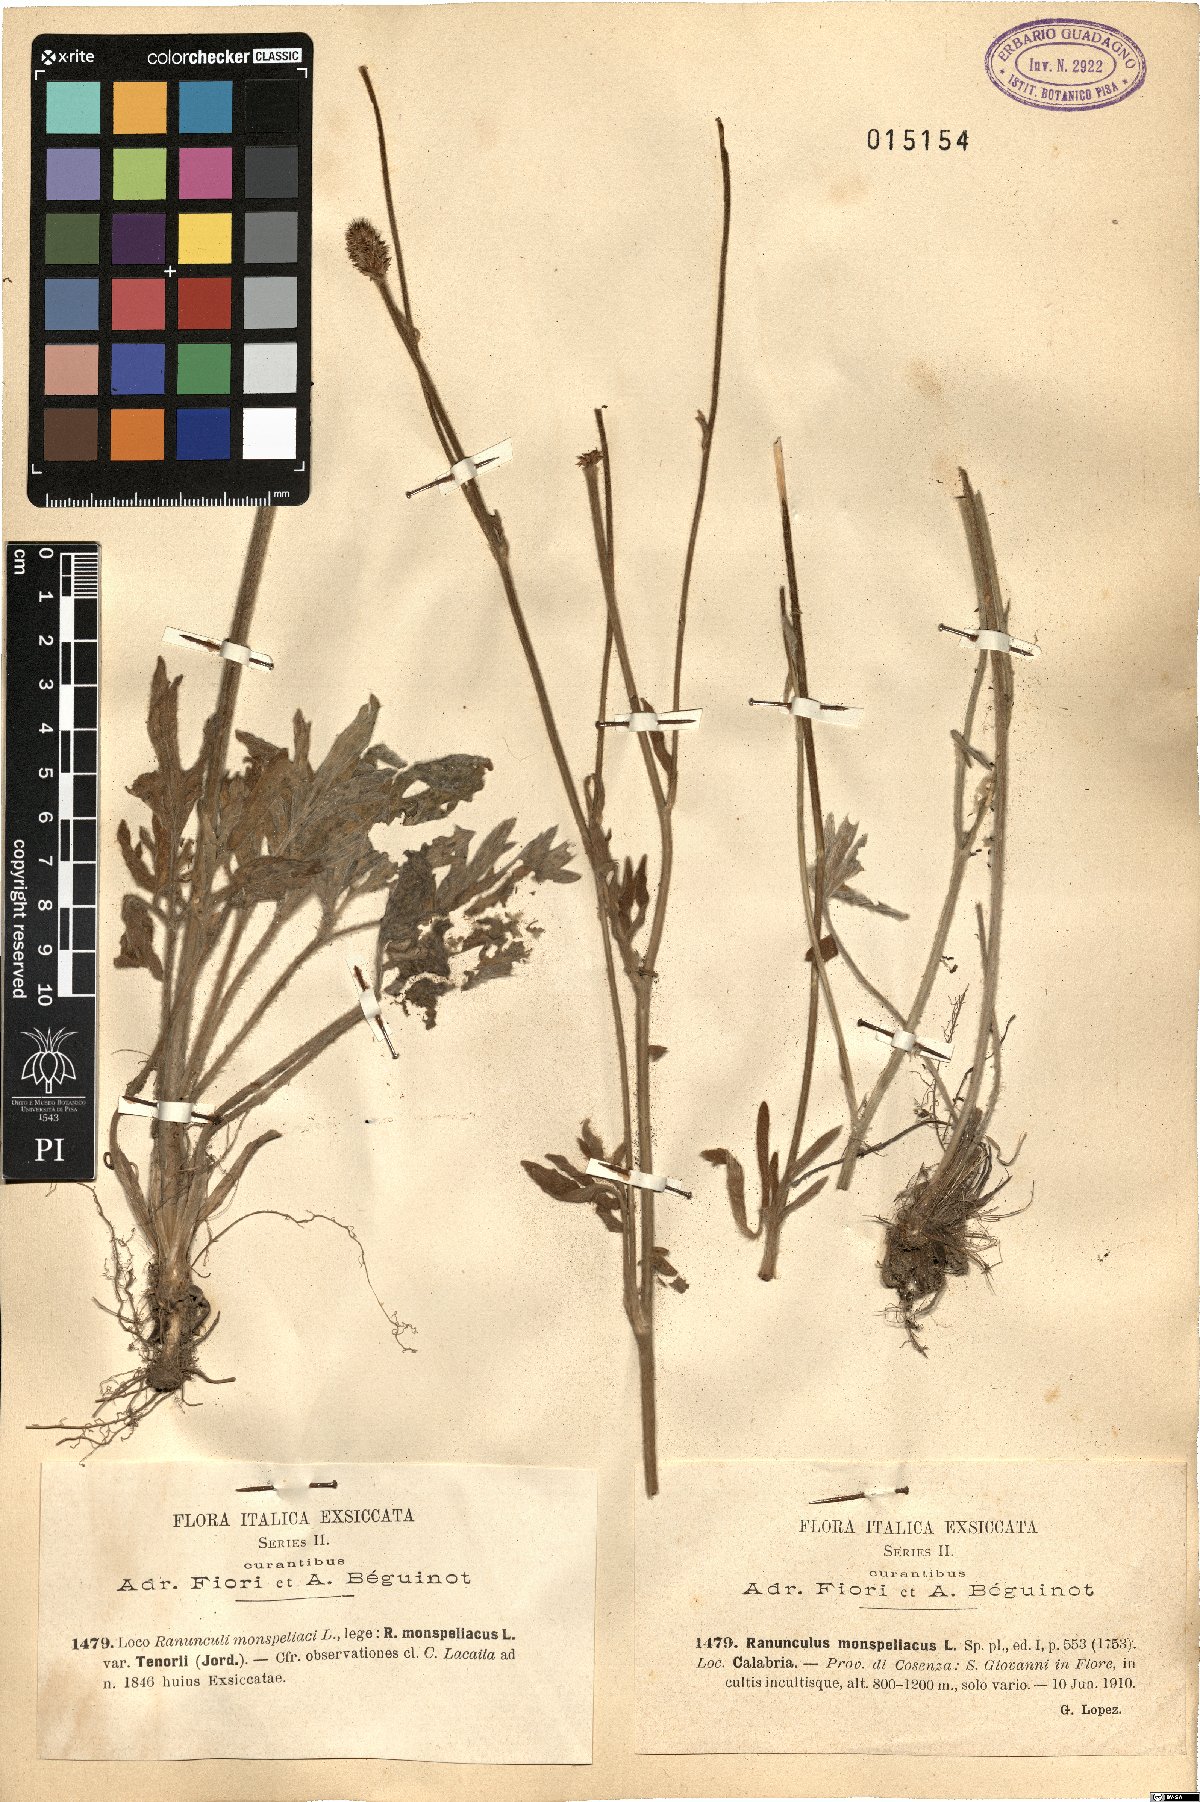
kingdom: Plantae
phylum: Tracheophyta
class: Magnoliopsida
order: Ranunculales
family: Ranunculaceae
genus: Ranunculus
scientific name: Ranunculus monspeliacus
